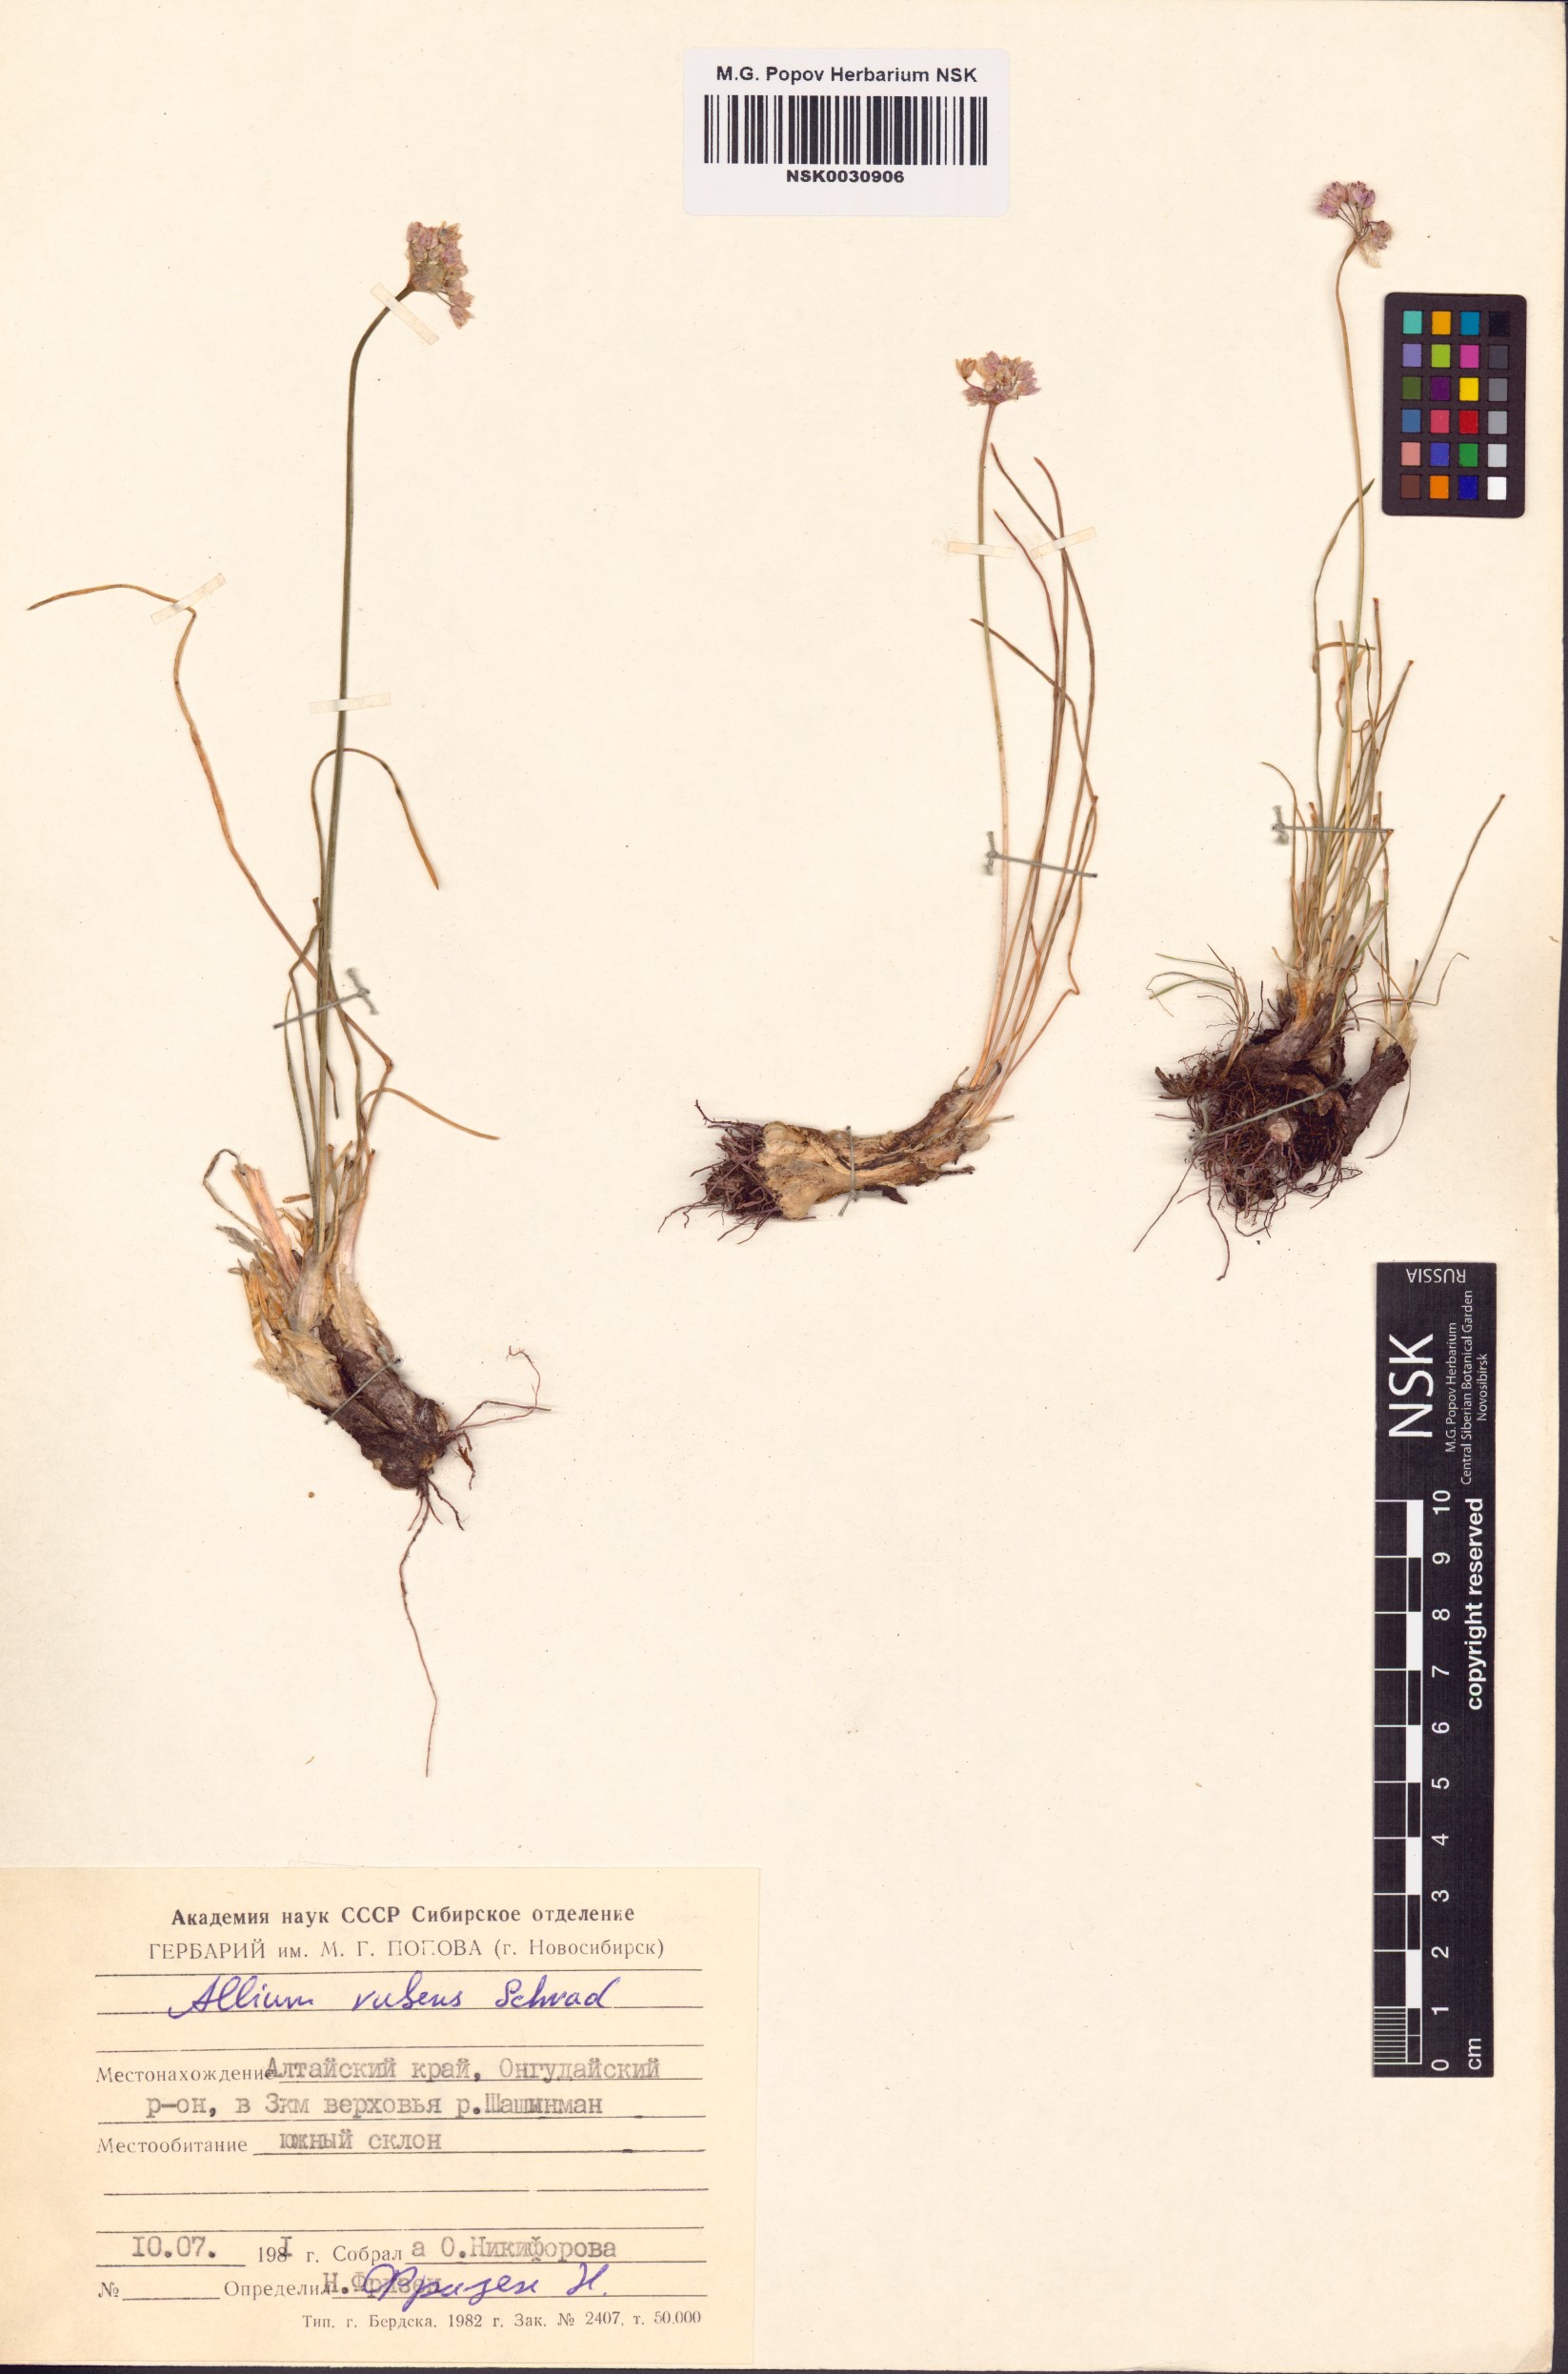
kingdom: Plantae
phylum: Tracheophyta
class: Liliopsida
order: Asparagales
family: Amaryllidaceae
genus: Allium
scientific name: Allium rubens
